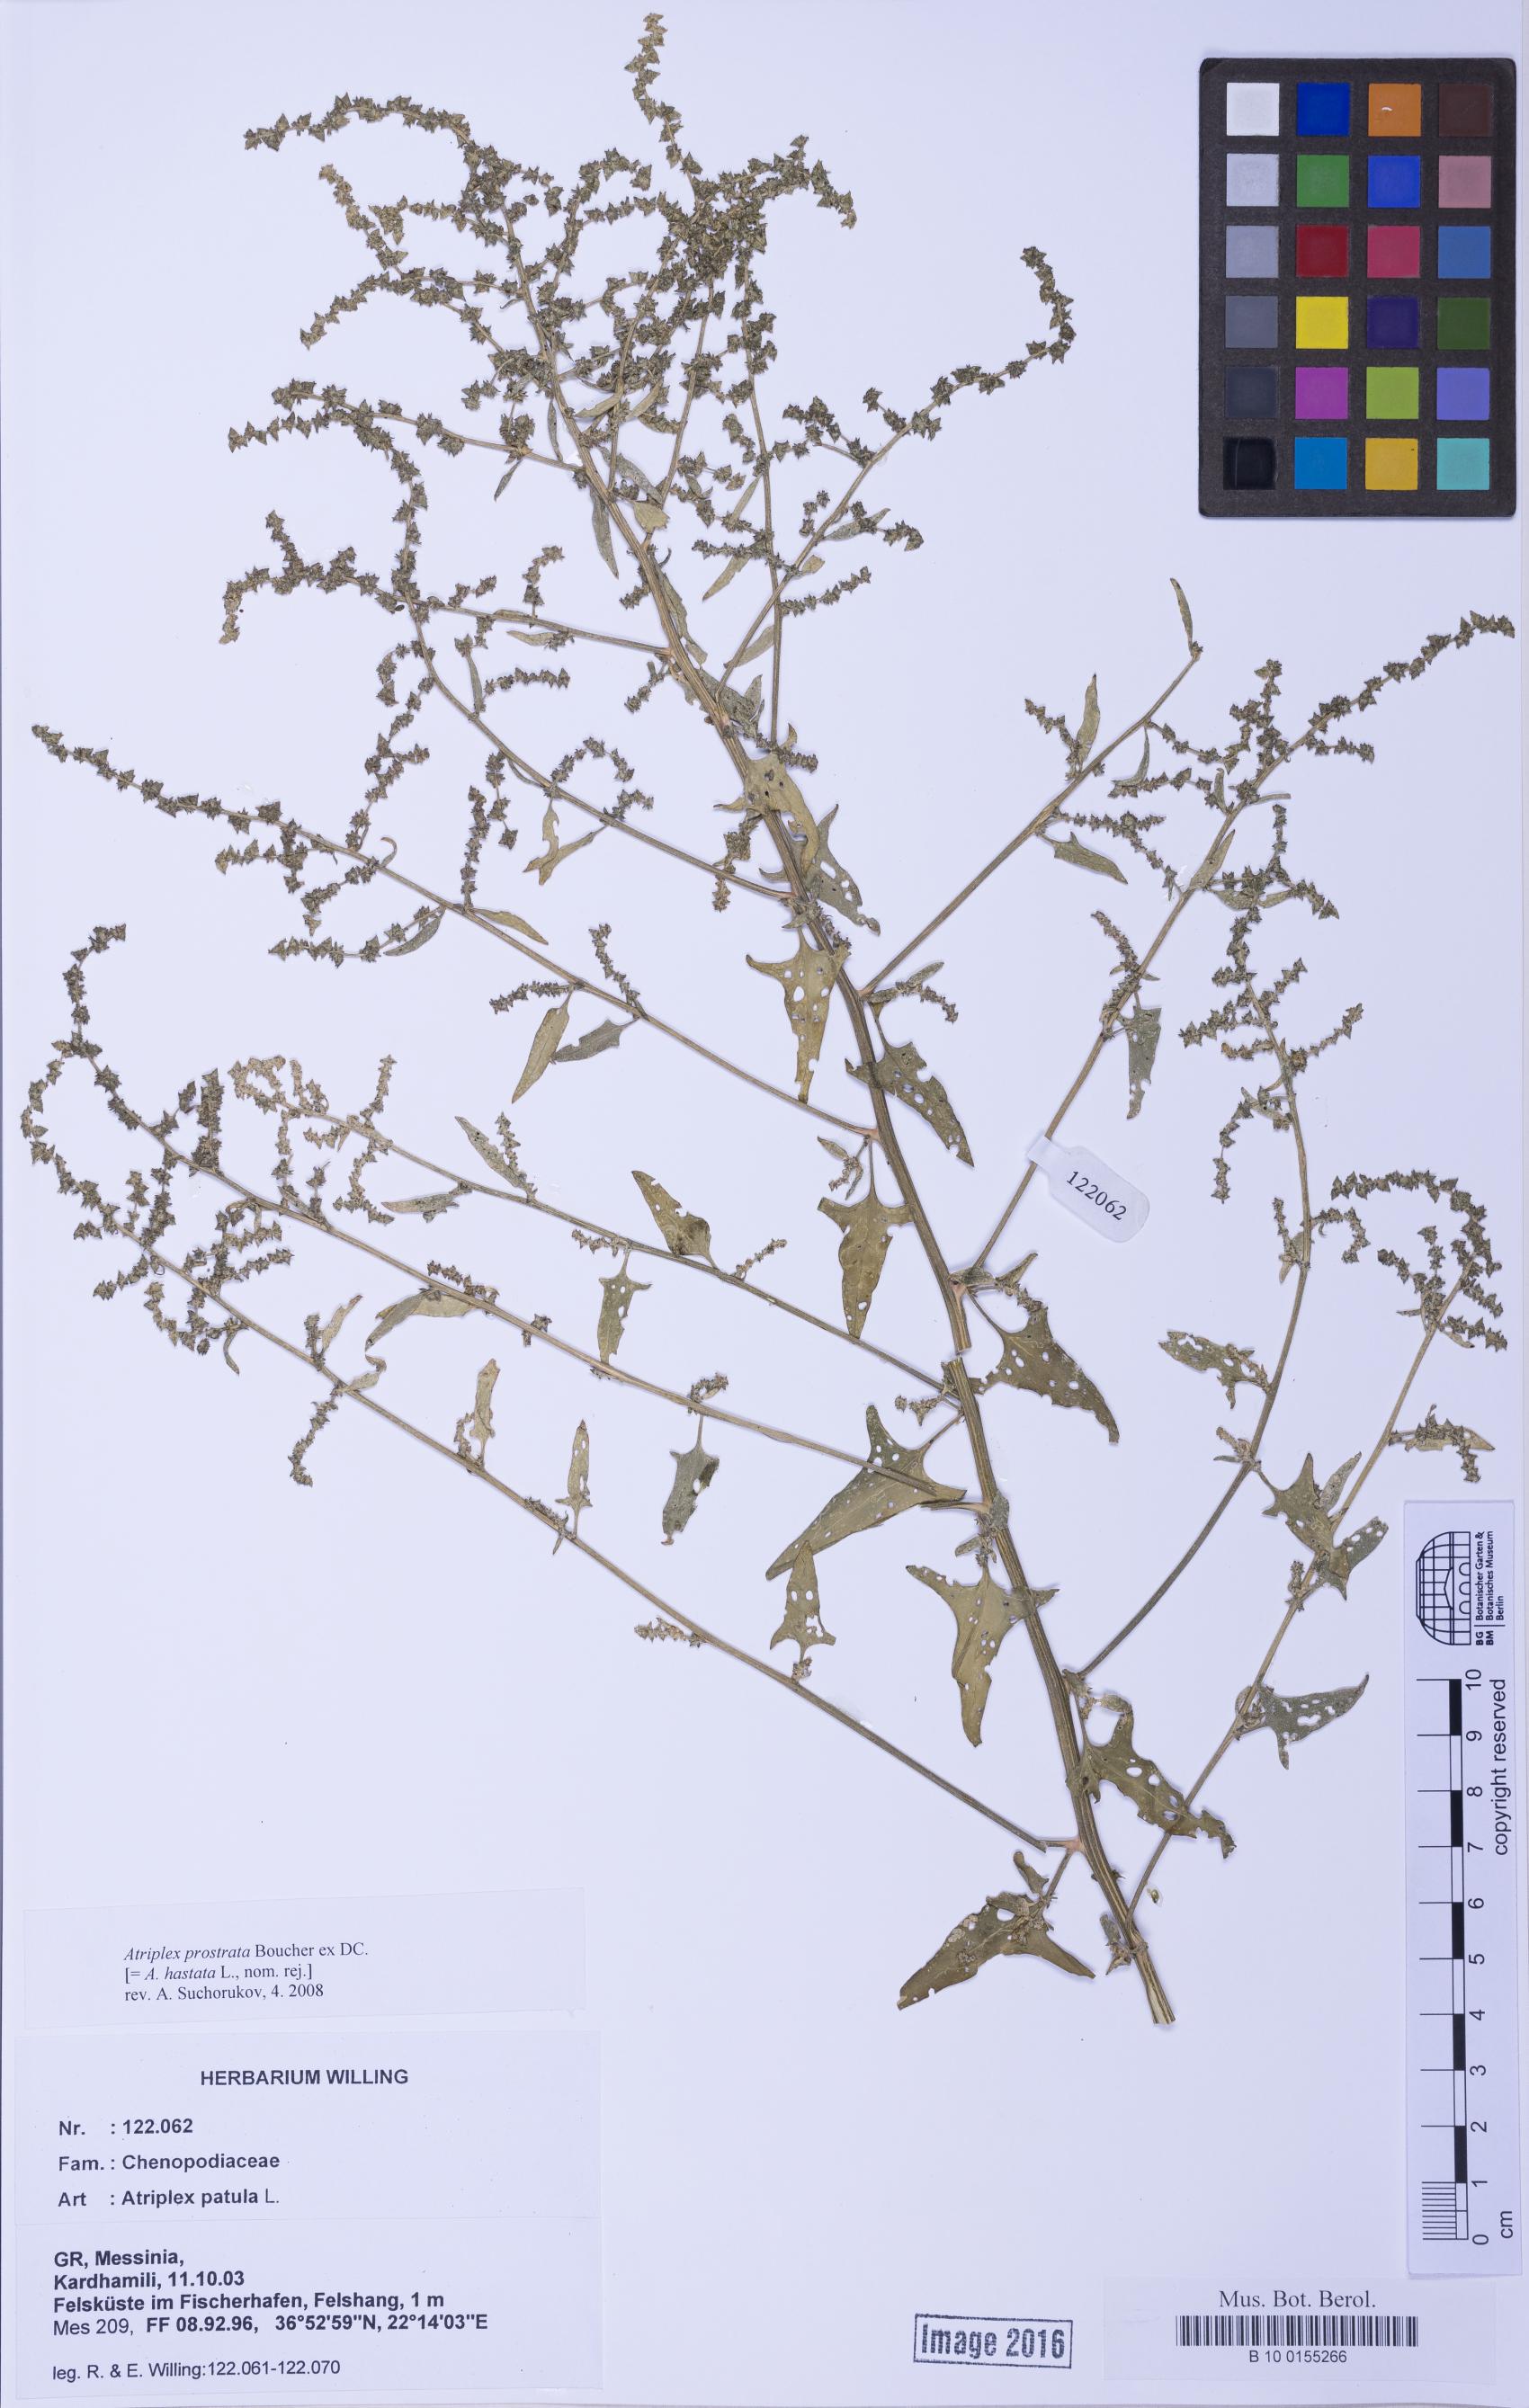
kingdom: Plantae
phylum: Tracheophyta
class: Magnoliopsida
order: Caryophyllales
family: Amaranthaceae
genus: Atriplex
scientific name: Atriplex prostrata
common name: Spear-leaved orache
